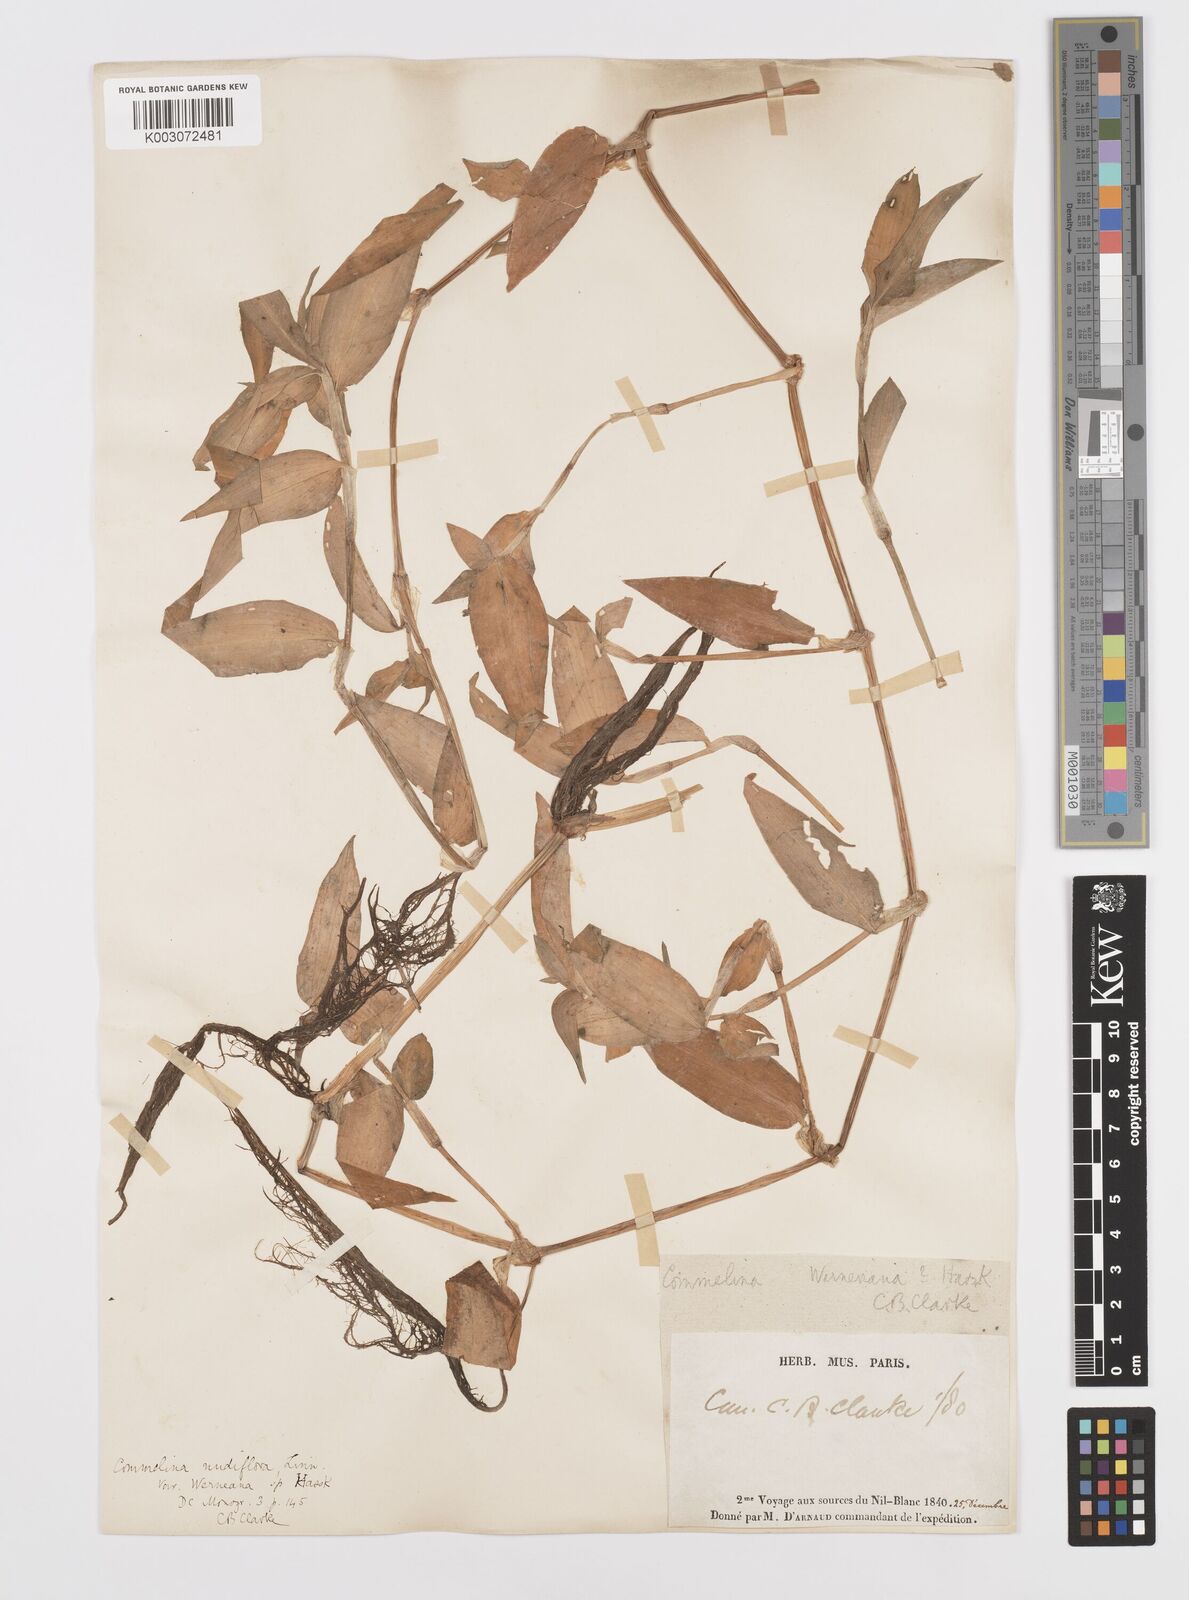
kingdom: Plantae
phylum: Tracheophyta
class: Liliopsida
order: Commelinales
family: Commelinaceae
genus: Commelina
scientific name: Commelina diffusa
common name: Climbing dayflower
